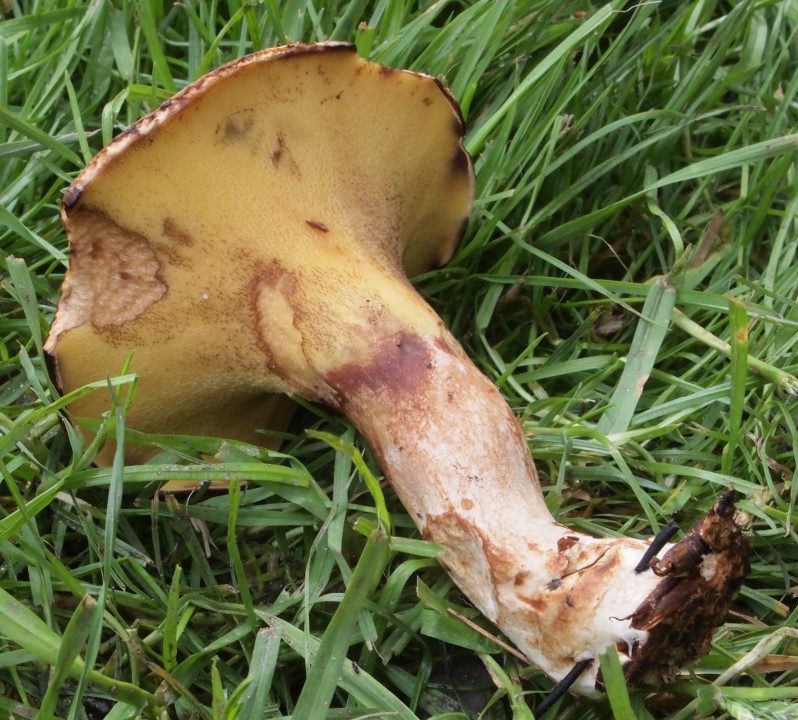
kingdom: Fungi
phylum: Basidiomycota
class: Agaricomycetes
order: Boletales
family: Paxillaceae
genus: Gyrodon
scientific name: Gyrodon lividus
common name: ellerørhat
